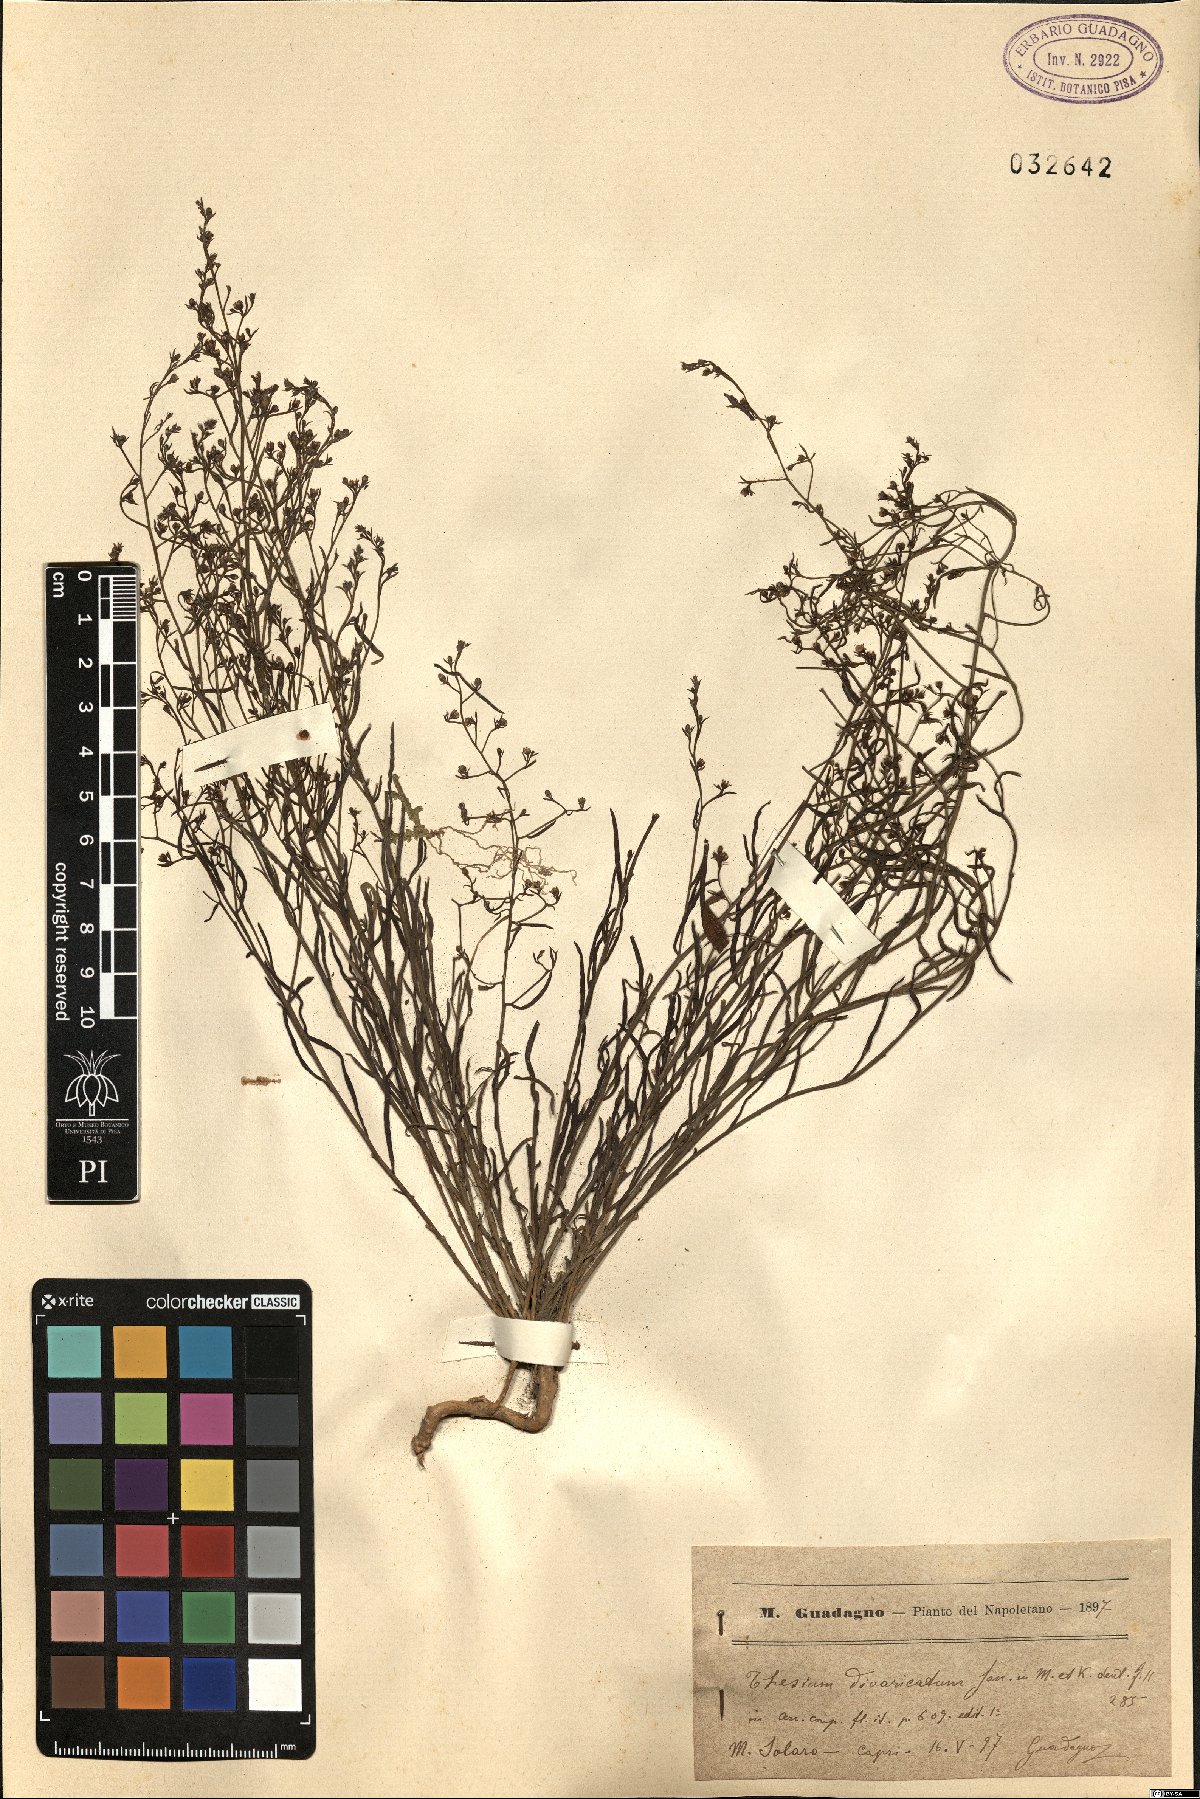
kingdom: Plantae
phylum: Tracheophyta
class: Magnoliopsida
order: Santalales
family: Thesiaceae
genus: Thesium
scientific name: Thesium divaricatum
